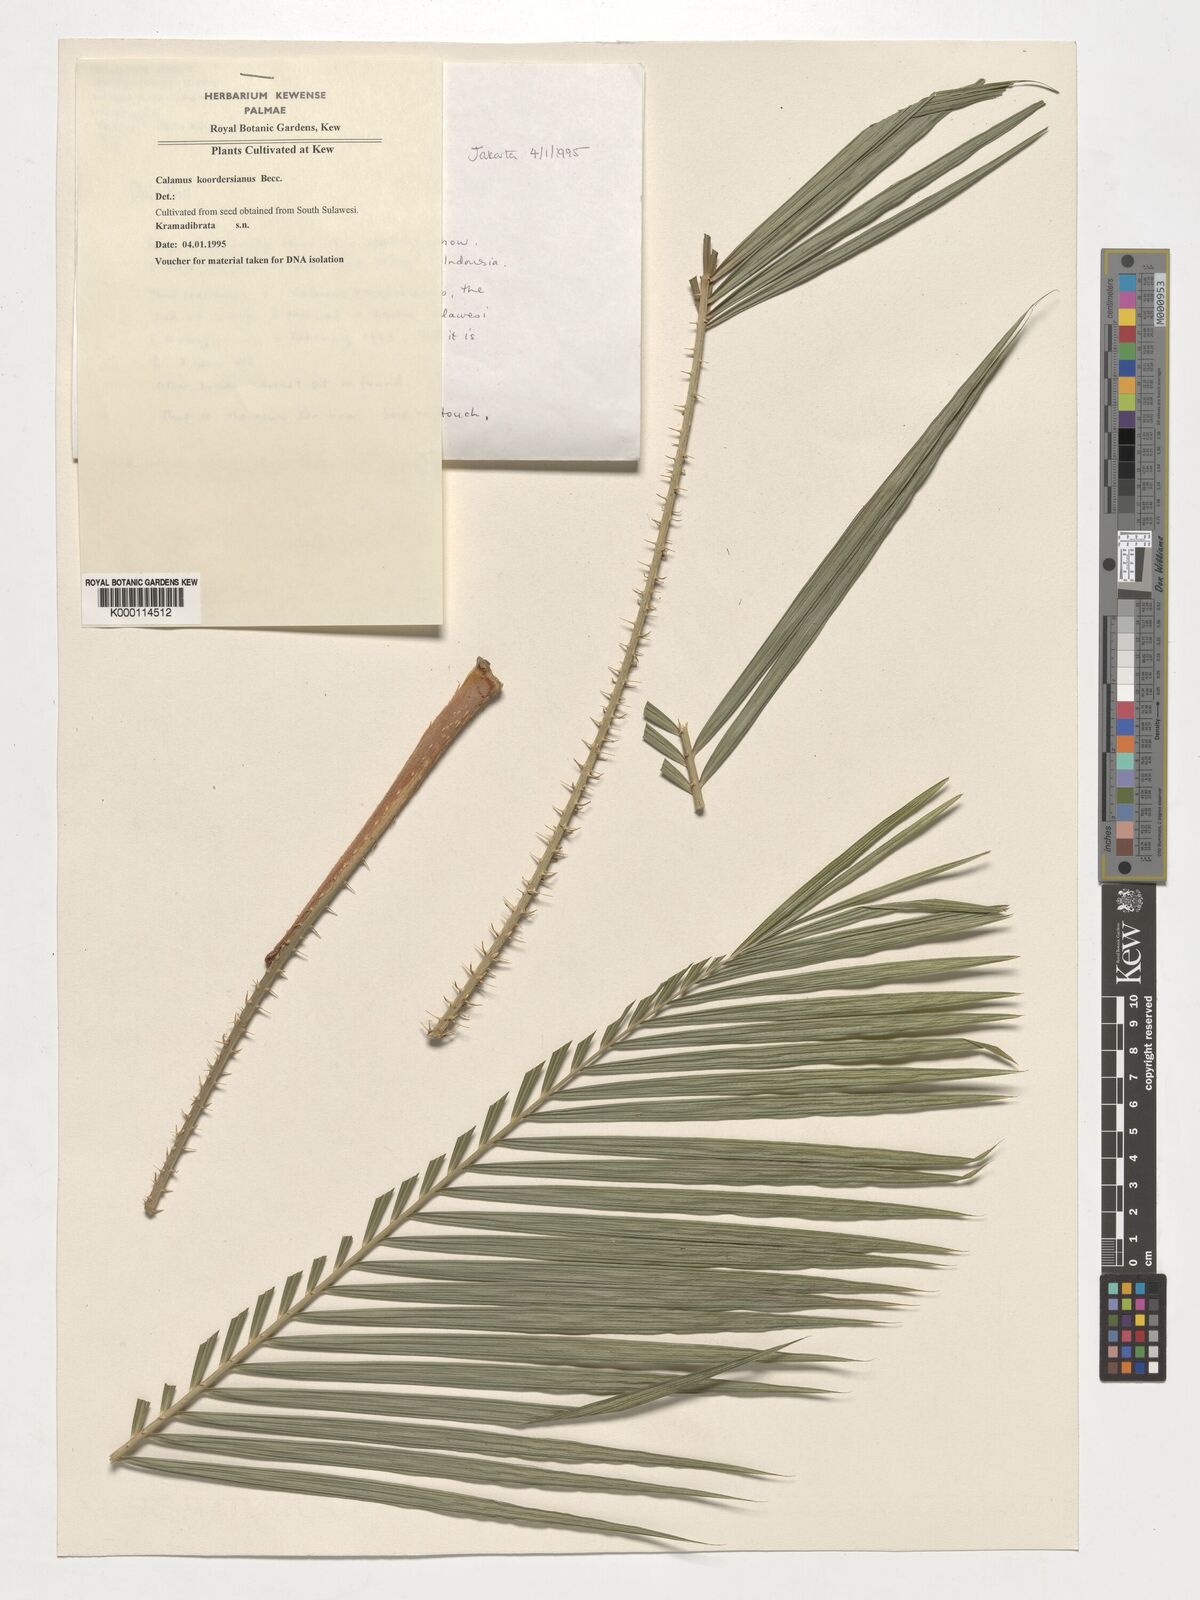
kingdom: Plantae
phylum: Tracheophyta
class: Liliopsida
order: Arecales
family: Arecaceae
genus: Calamus
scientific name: Calamus koordersianus
